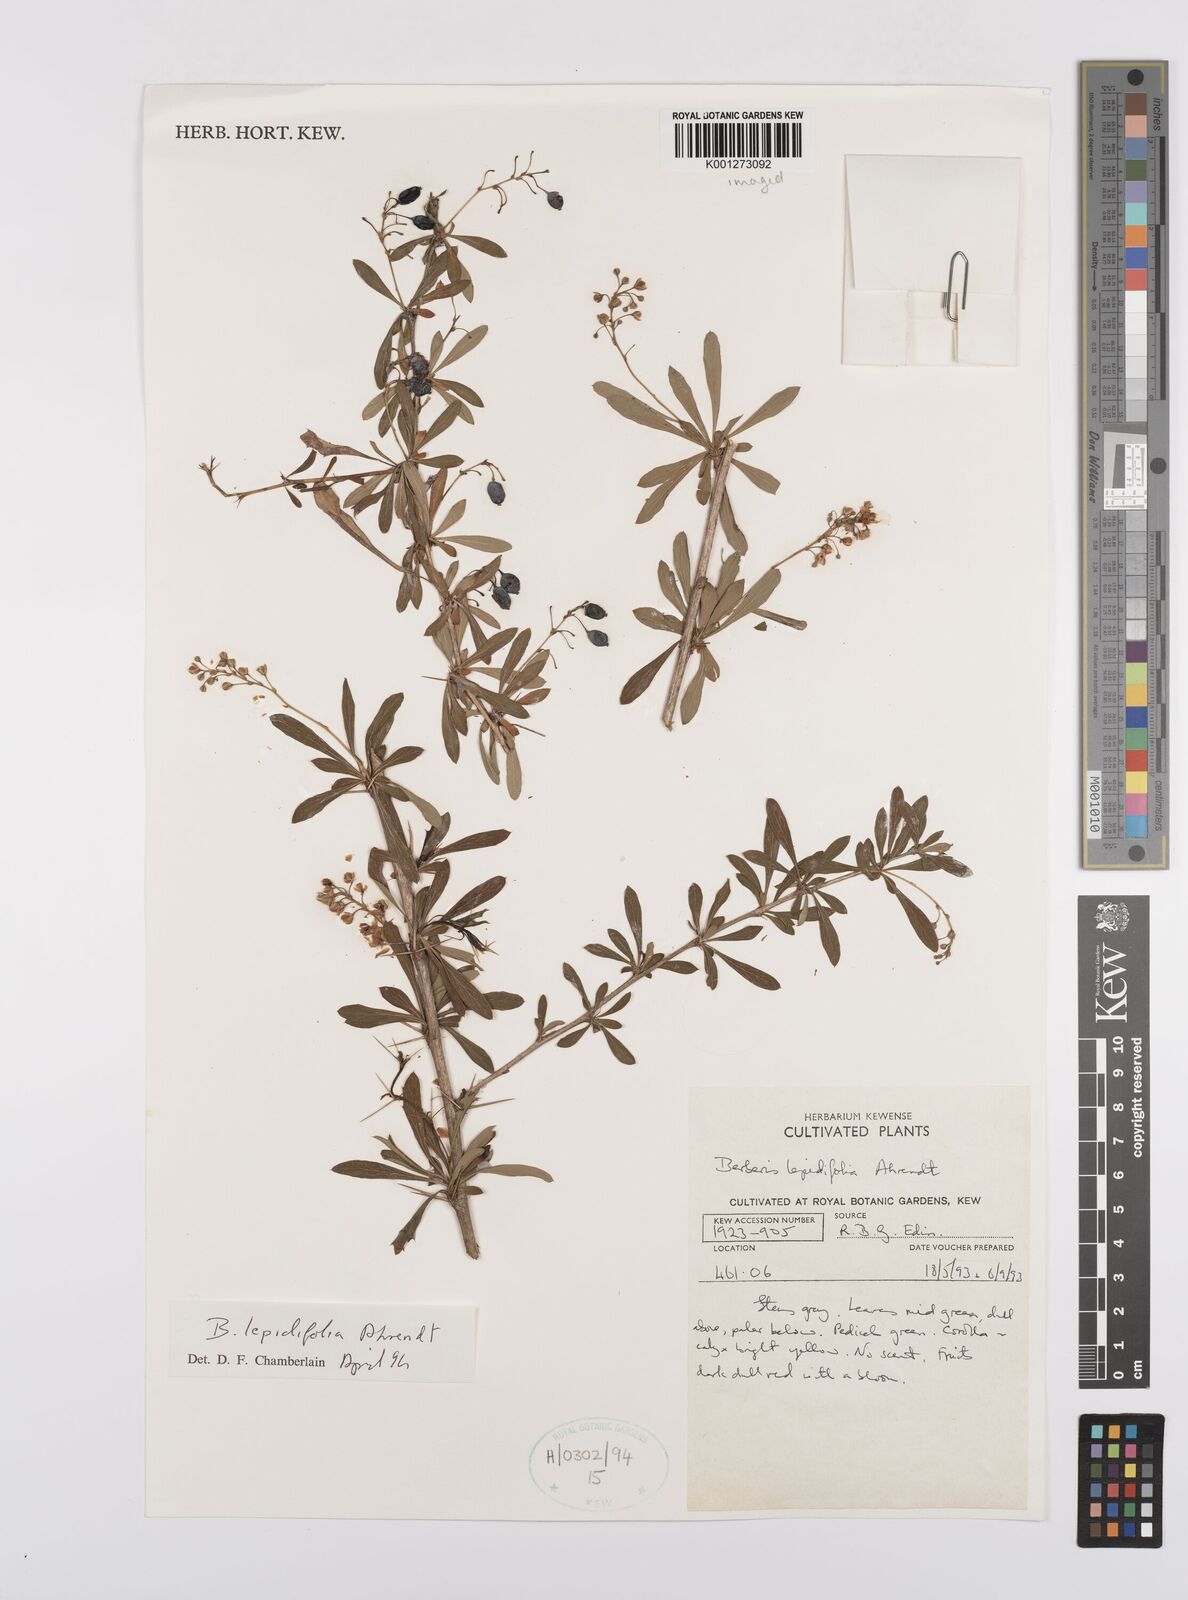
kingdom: Plantae
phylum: Tracheophyta
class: Magnoliopsida
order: Ranunculales
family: Berberidaceae
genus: Berberis
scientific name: Berberis
